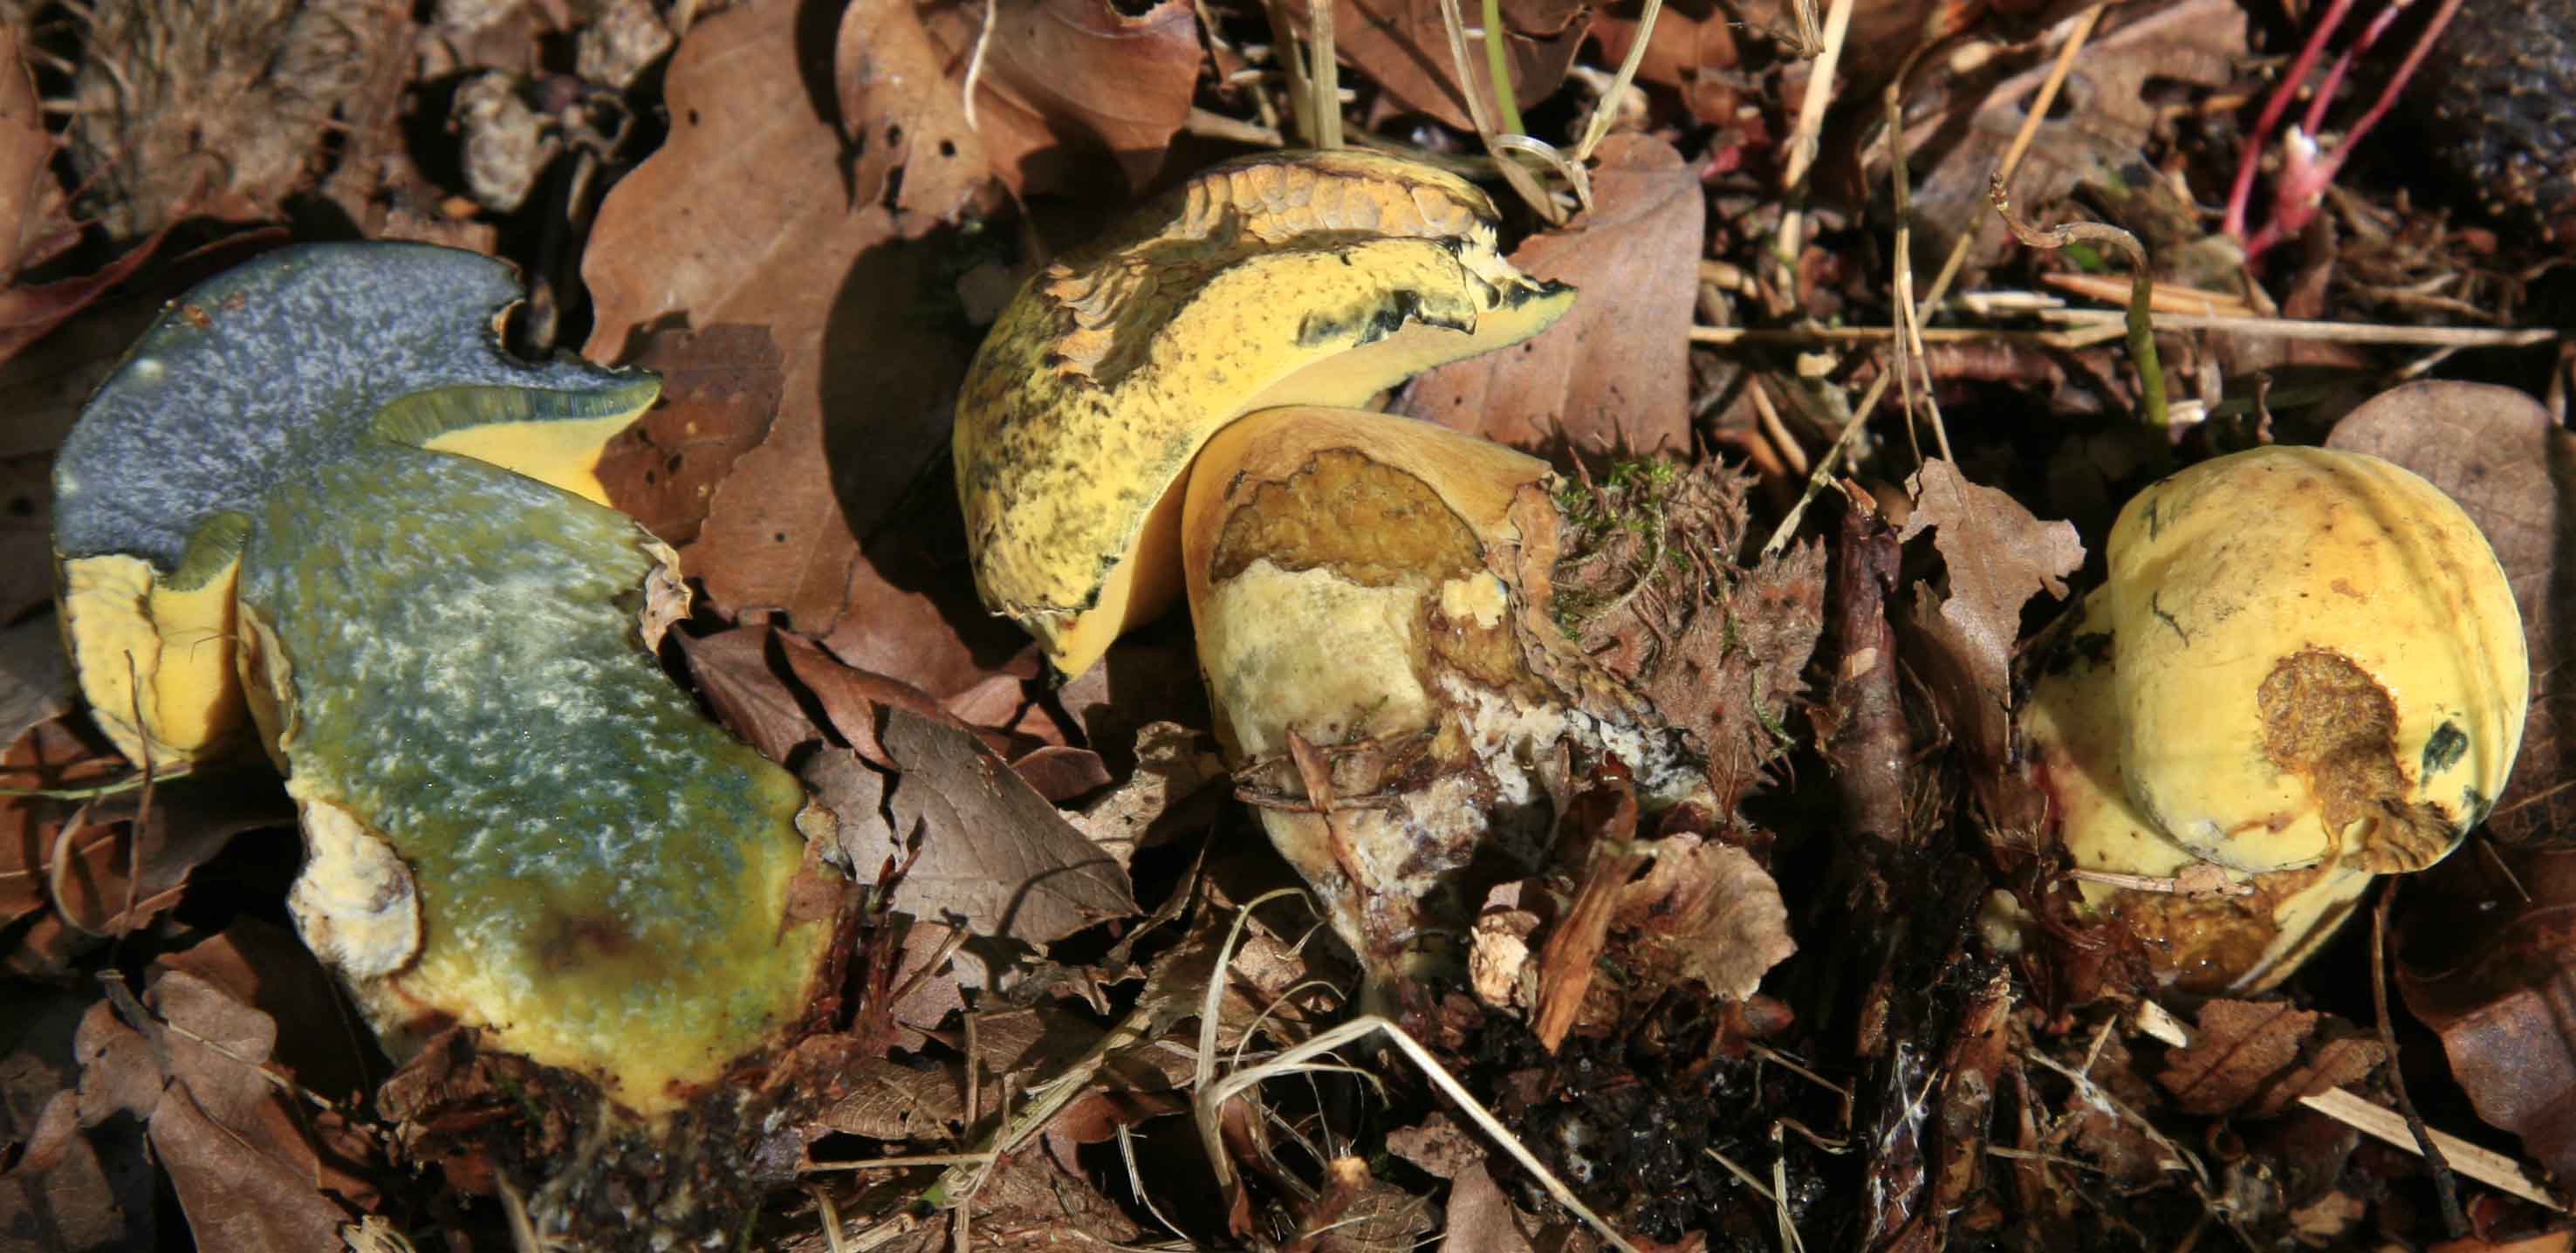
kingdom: Fungi
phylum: Basidiomycota
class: Agaricomycetes
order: Boletales
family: Boletaceae
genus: Neoboletus
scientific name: Neoboletus erythropus
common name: punktstokket indigorørhat
